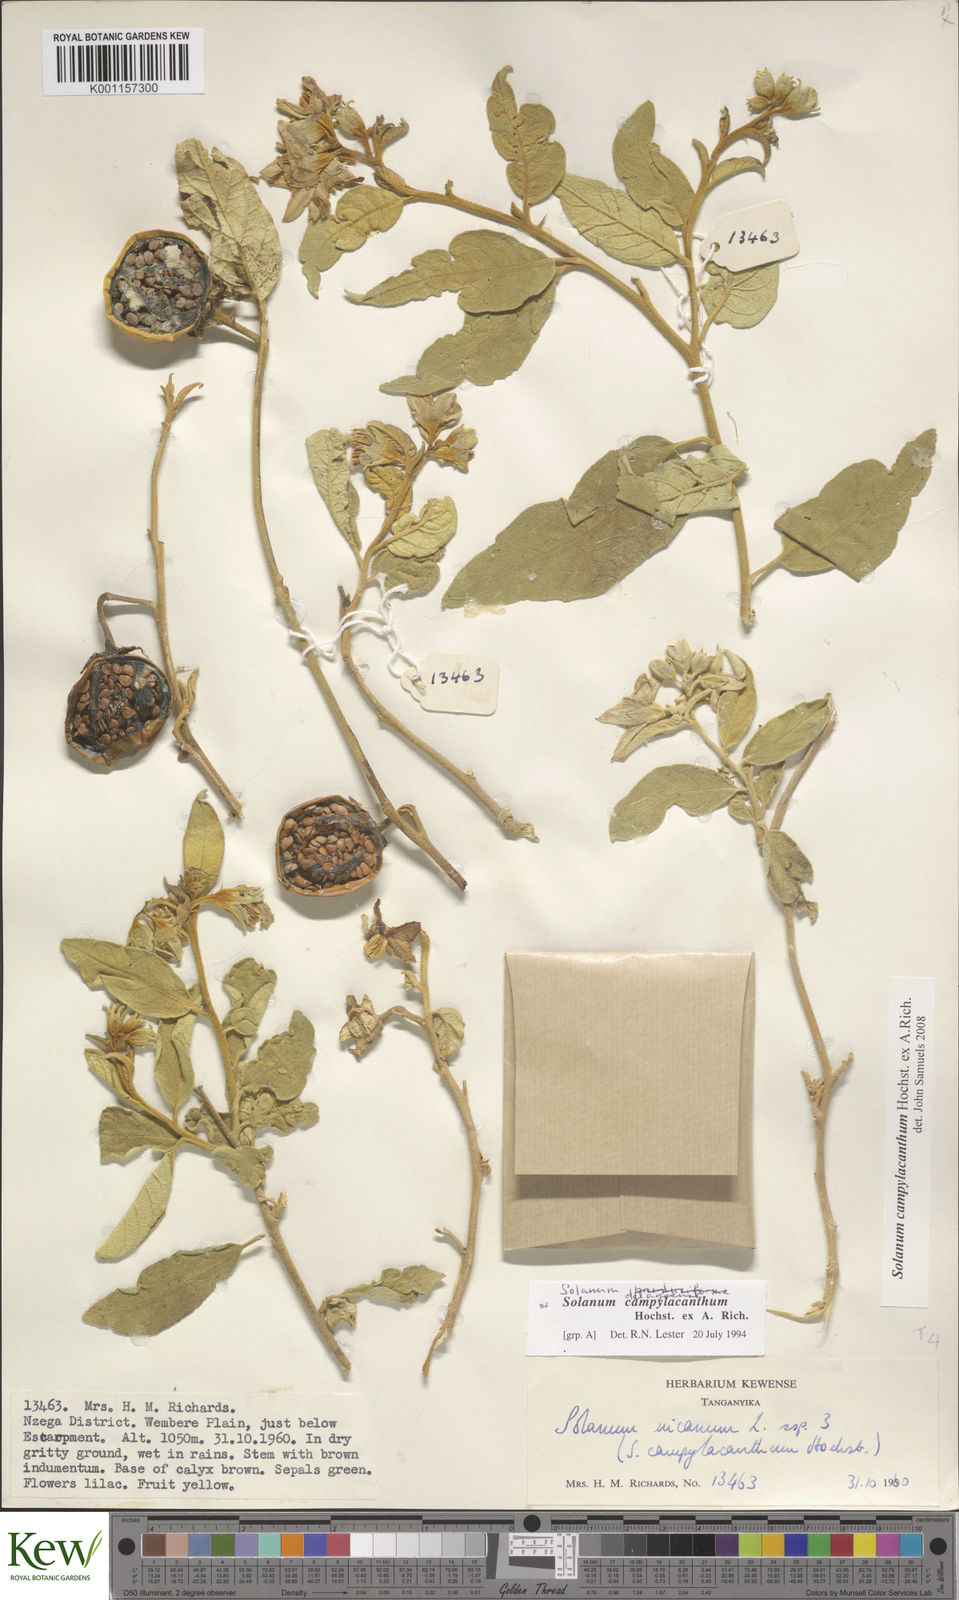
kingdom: Plantae
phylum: Tracheophyta
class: Magnoliopsida
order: Solanales
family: Solanaceae
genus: Solanum
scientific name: Solanum campylacanthum
